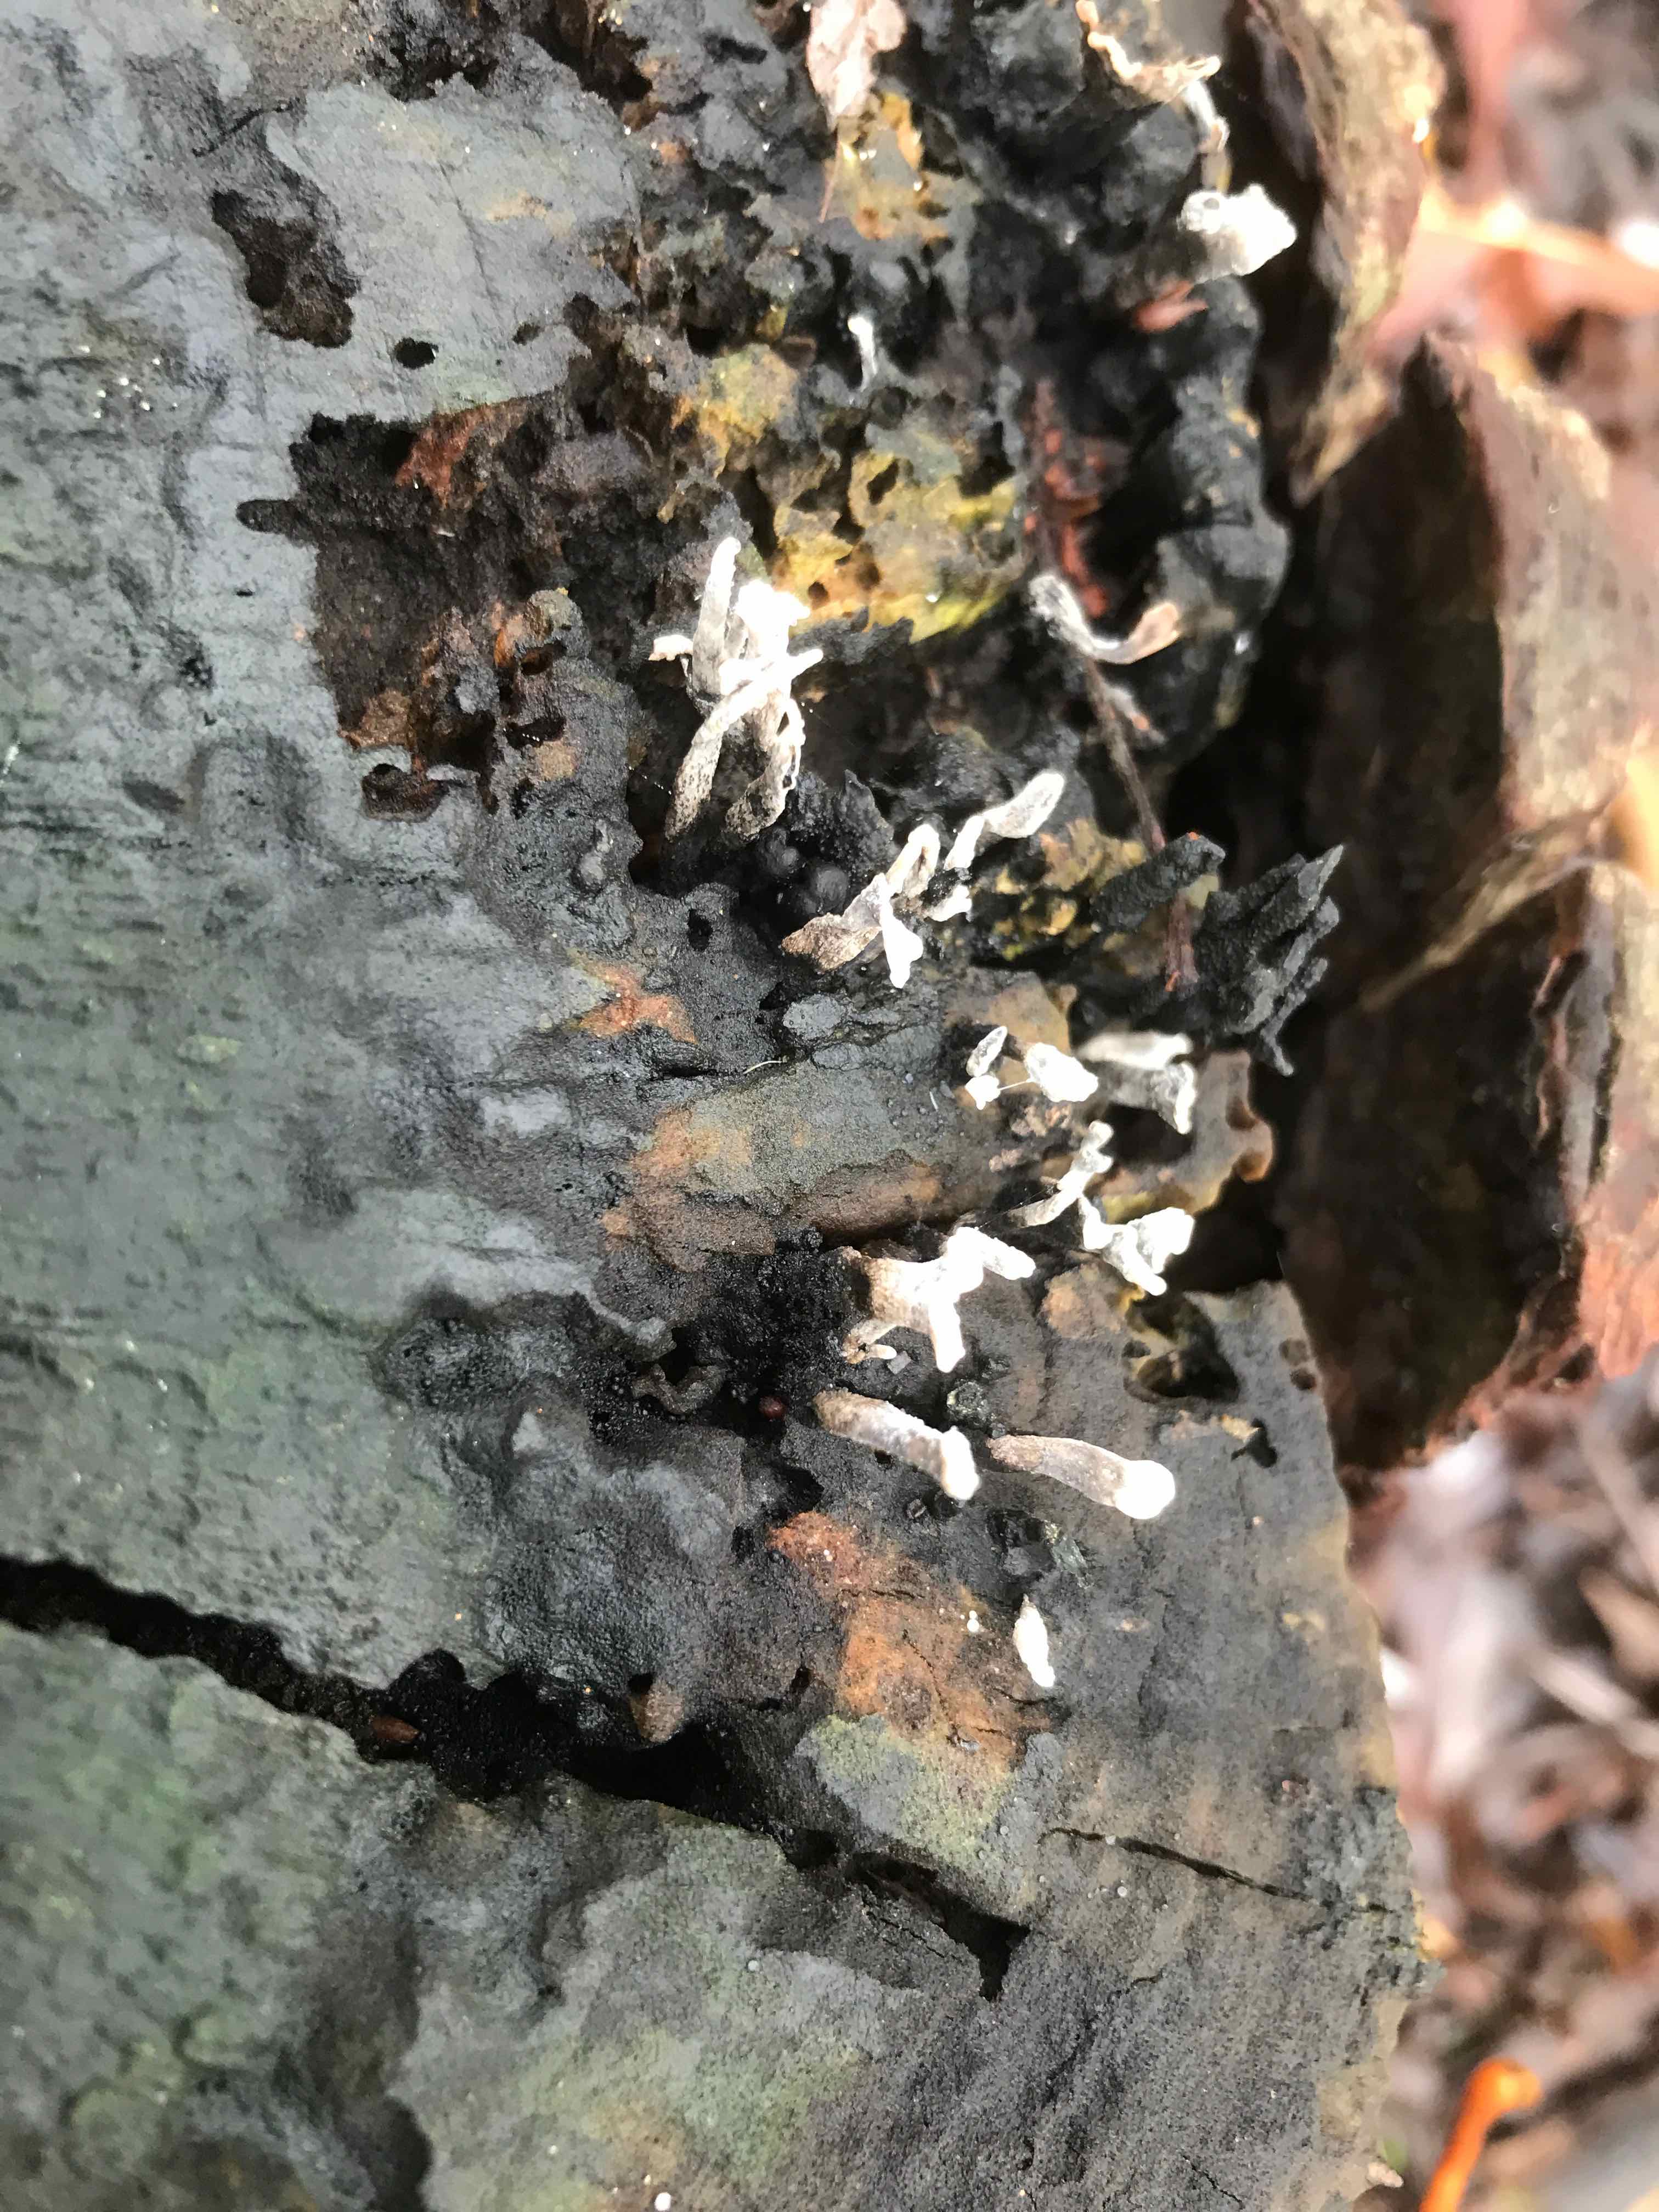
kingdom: Fungi
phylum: Ascomycota
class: Sordariomycetes
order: Xylariales
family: Xylariaceae
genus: Xylaria
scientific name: Xylaria hypoxylon
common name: grenet stødsvamp
